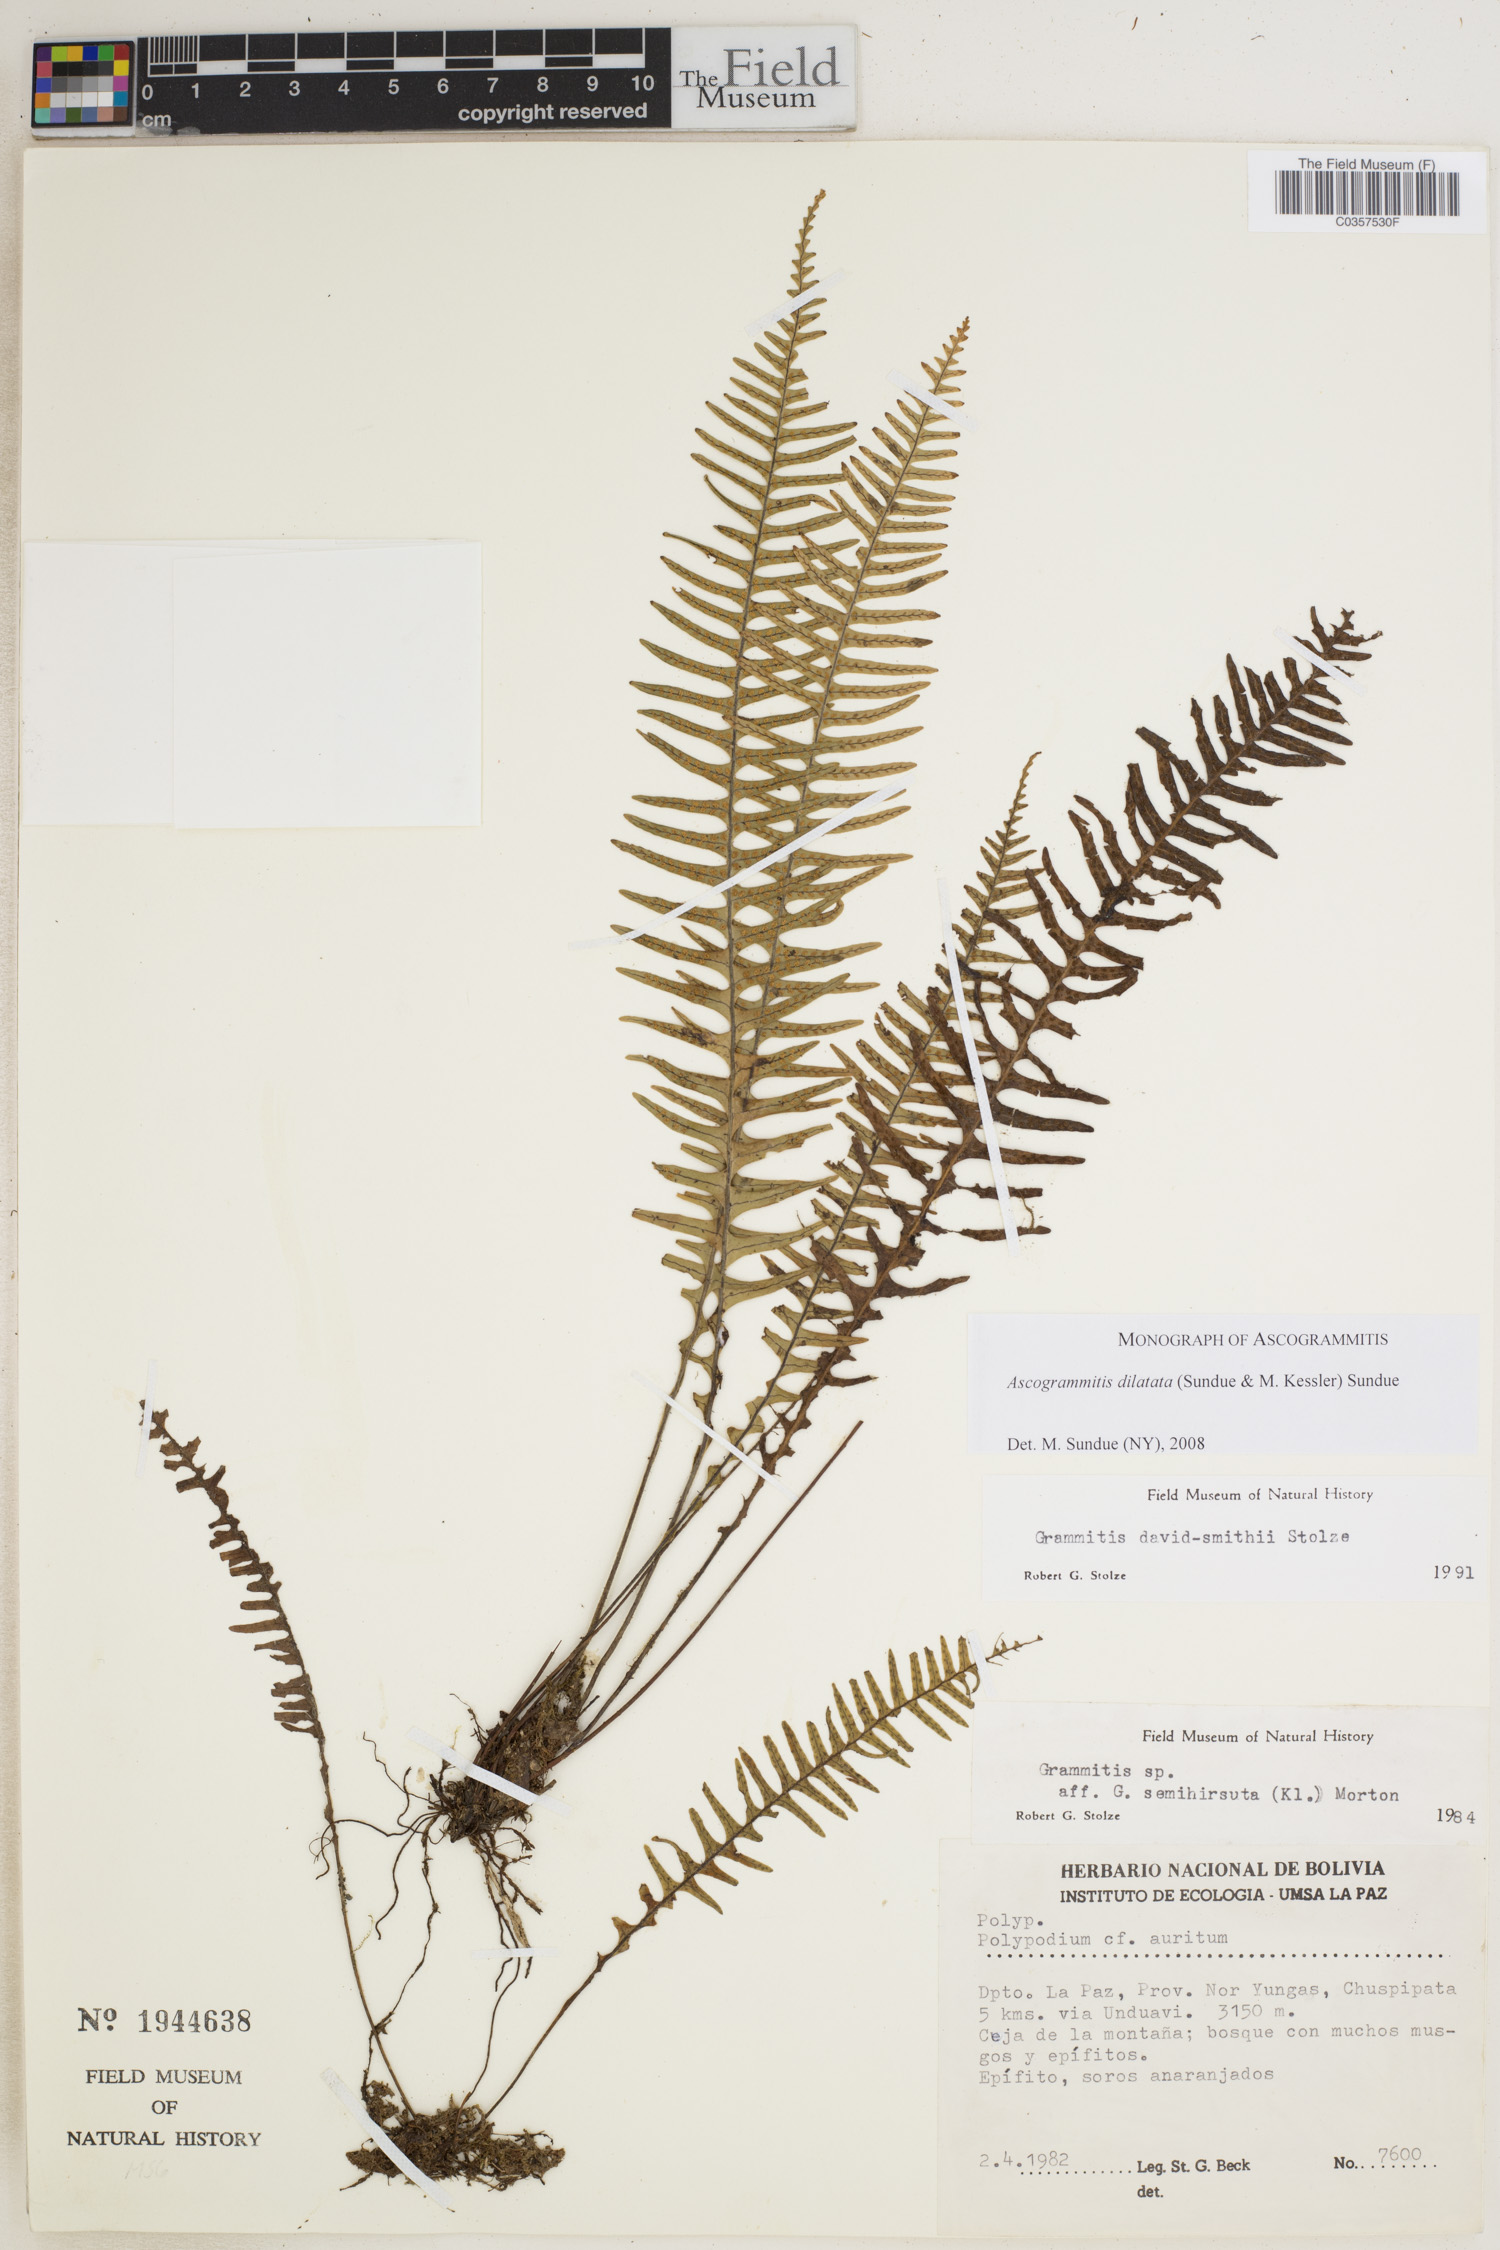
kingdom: Plantae
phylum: Tracheophyta
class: Polypodiopsida
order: Polypodiales
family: Polypodiaceae
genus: Ascogrammitis
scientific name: Ascogrammitis dilatata
